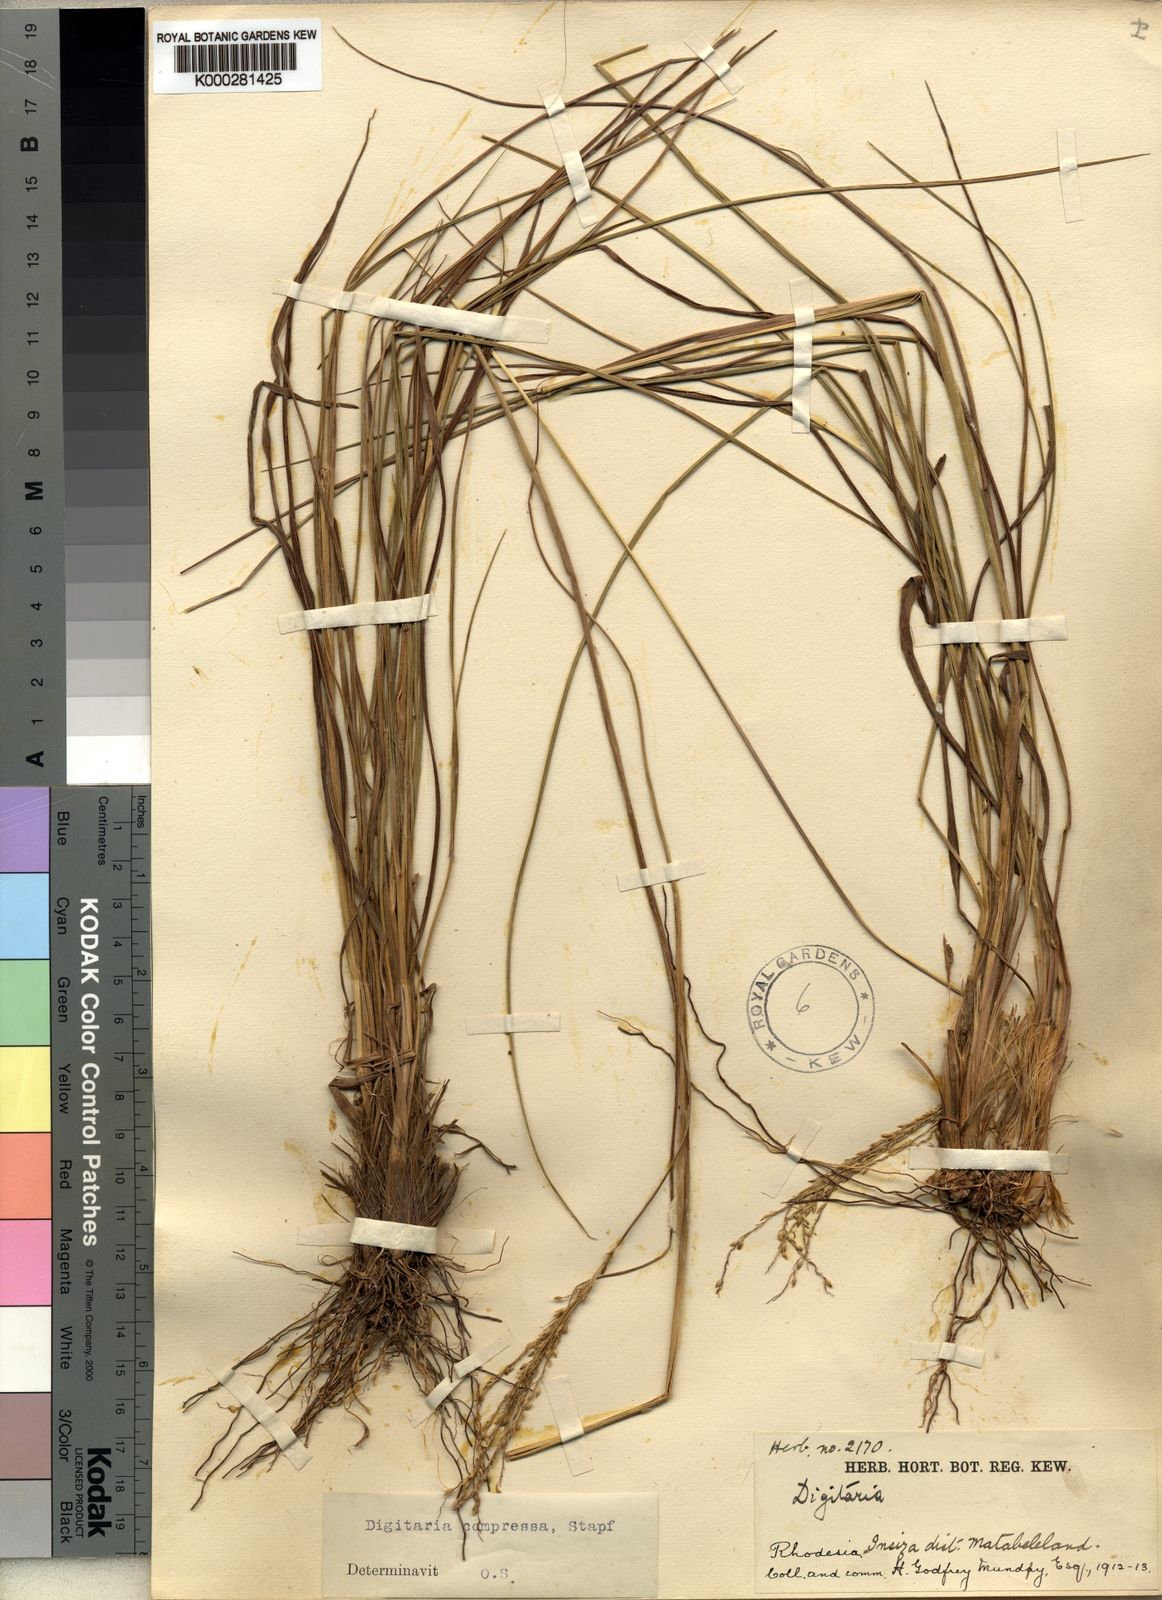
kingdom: Plantae
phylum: Tracheophyta
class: Liliopsida
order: Poales
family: Poaceae
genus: Digitaria
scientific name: Digitaria compressa
